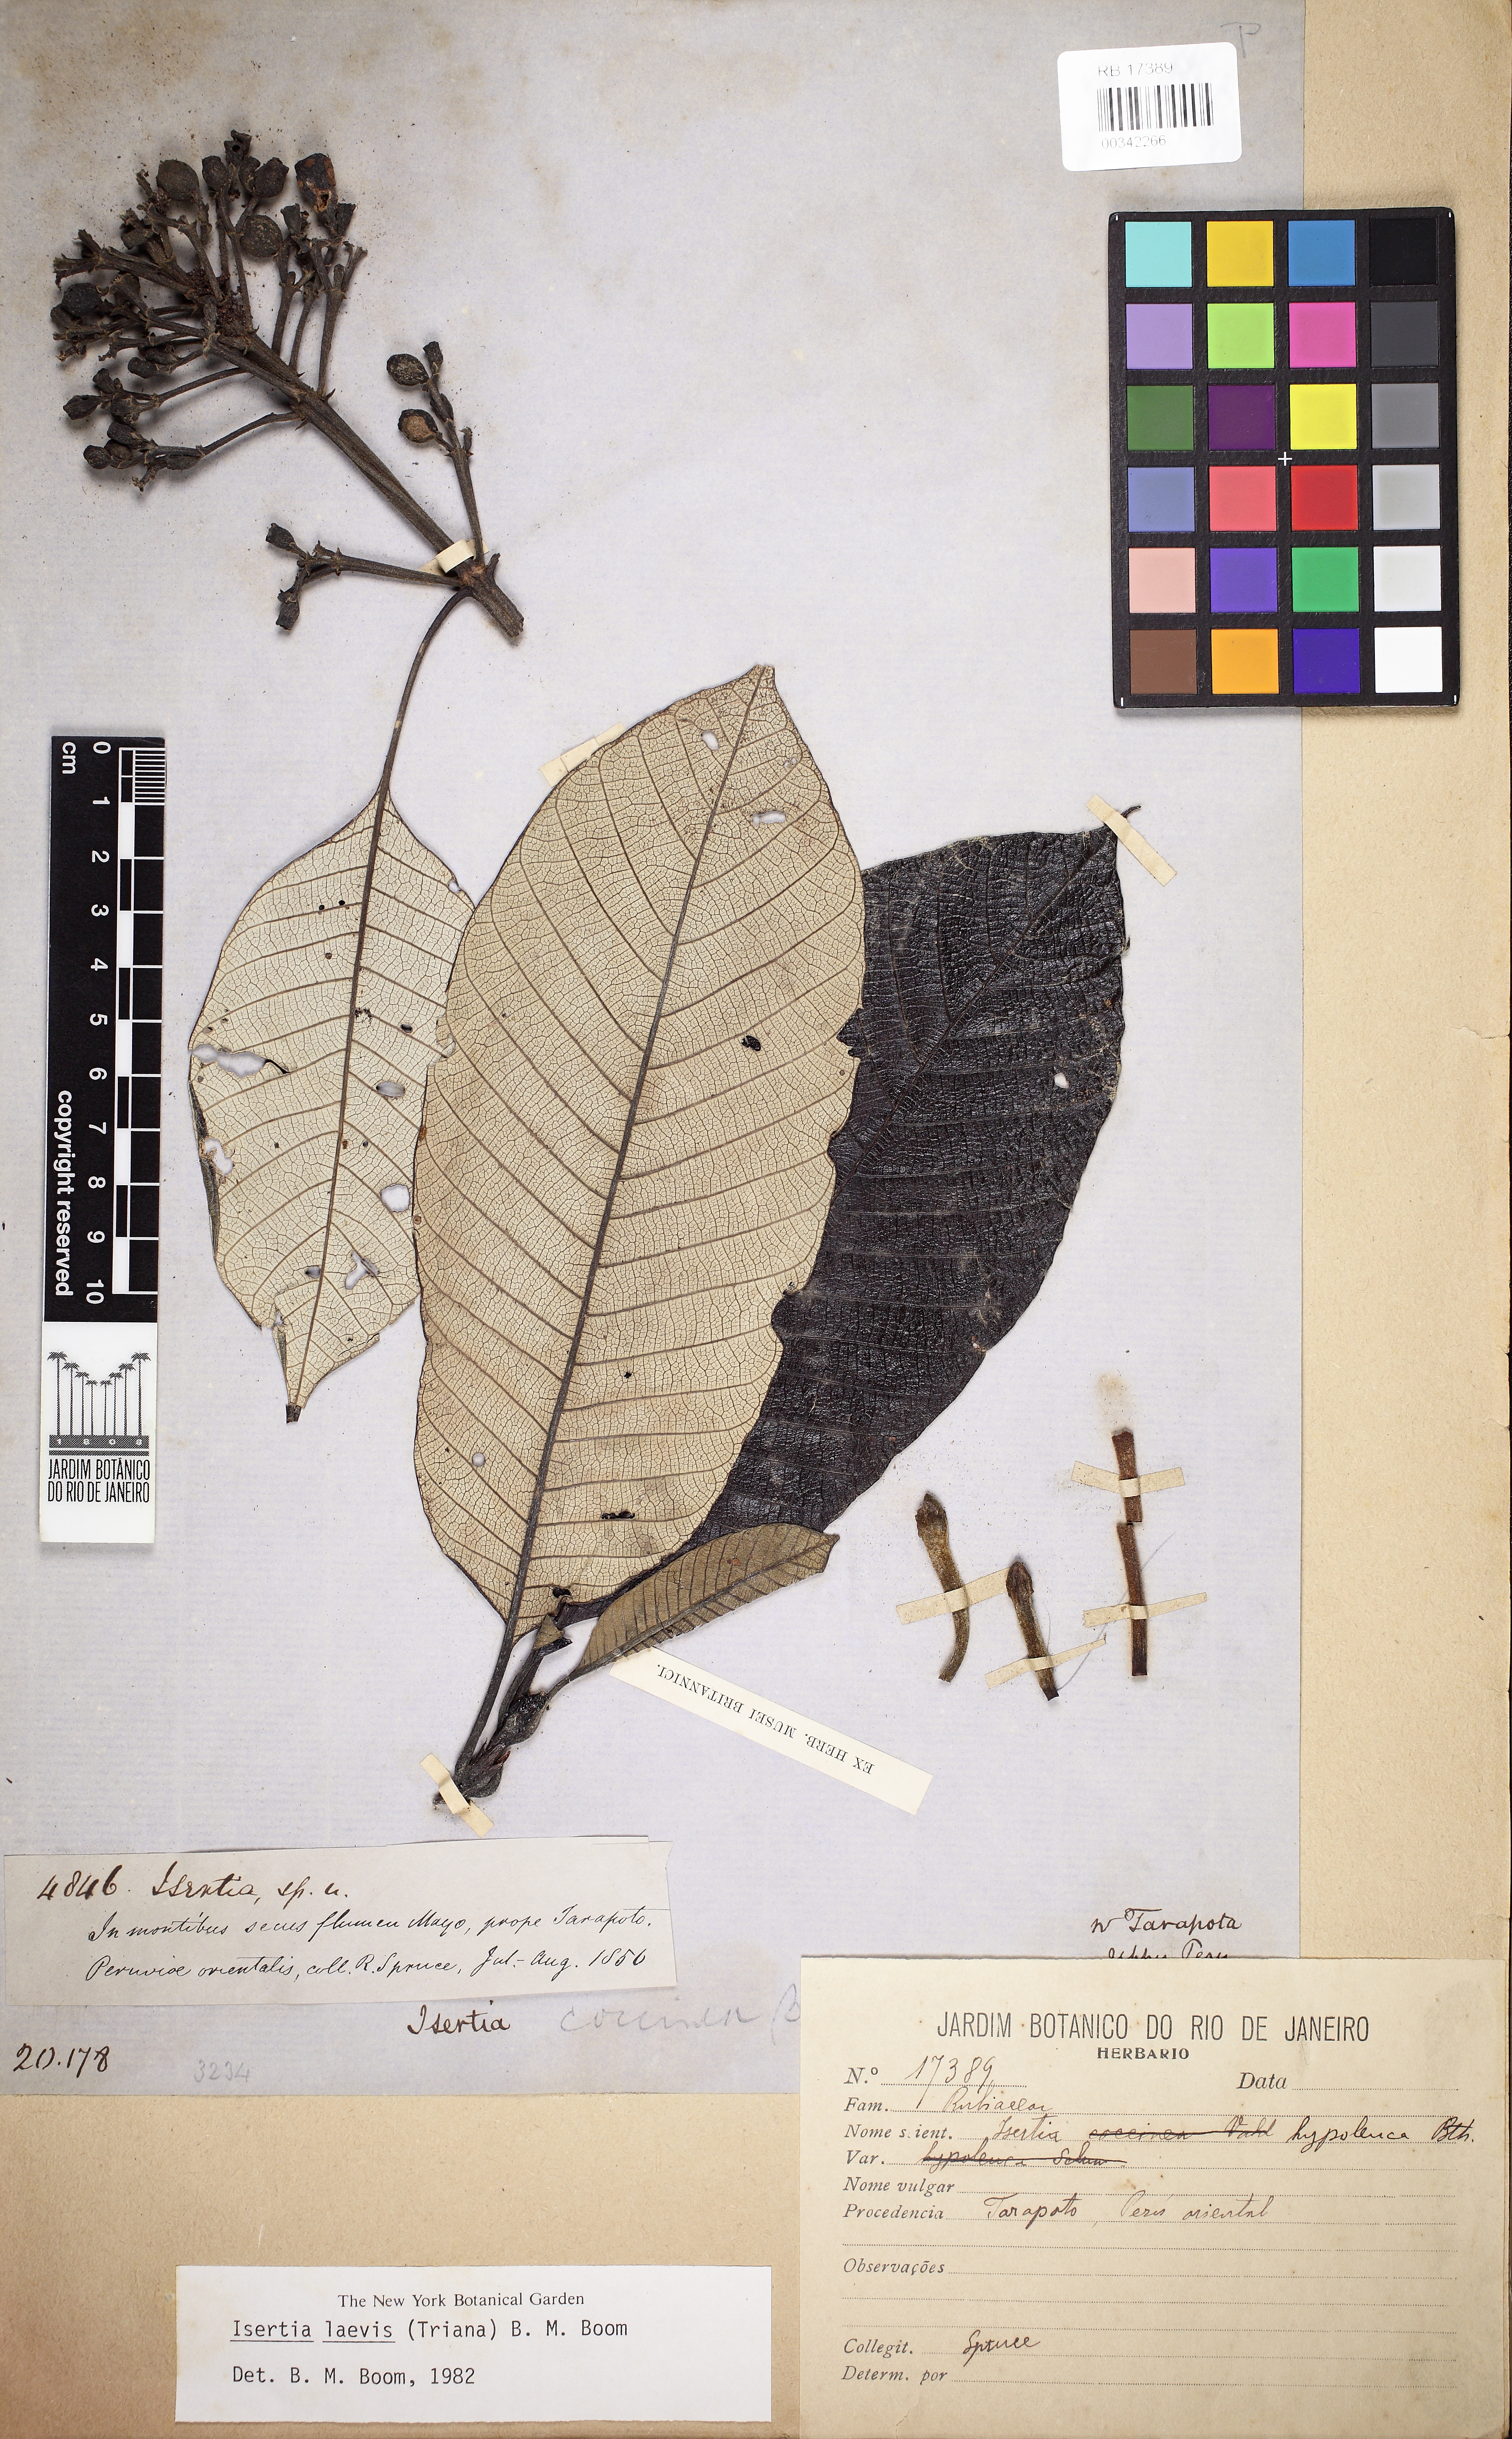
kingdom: Plantae
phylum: Tracheophyta
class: Magnoliopsida
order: Gentianales
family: Rubiaceae
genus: Isertia
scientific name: Isertia laevis
